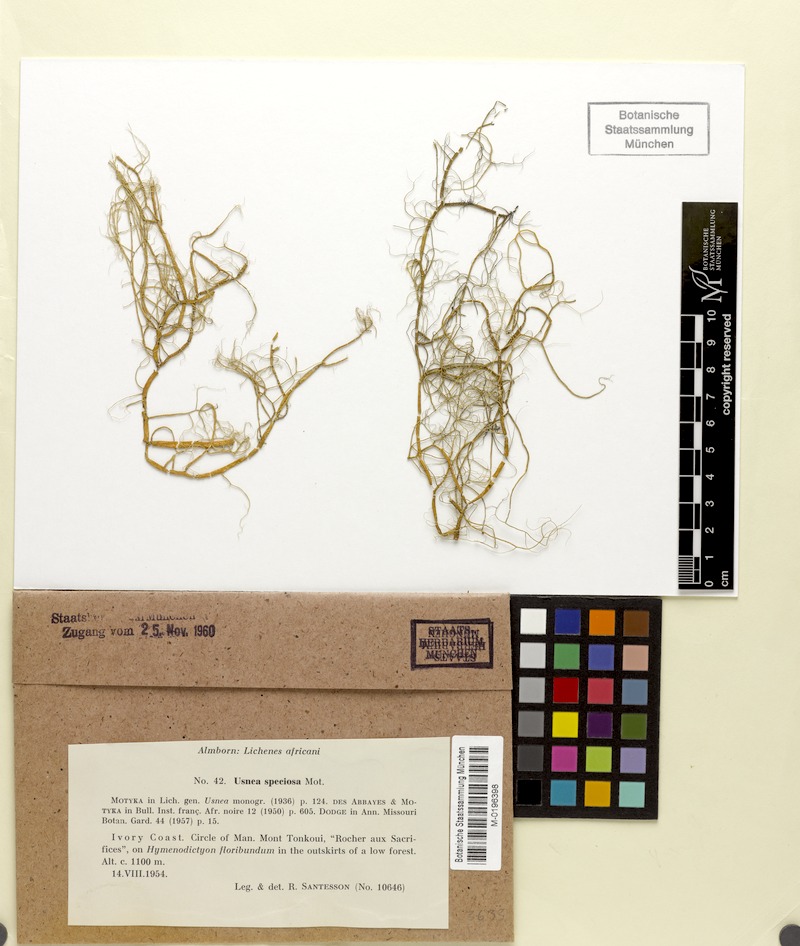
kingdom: Fungi
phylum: Ascomycota
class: Lecanoromycetes
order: Lecanorales
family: Parmeliaceae
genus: Usnea
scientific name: Usnea speciosa
